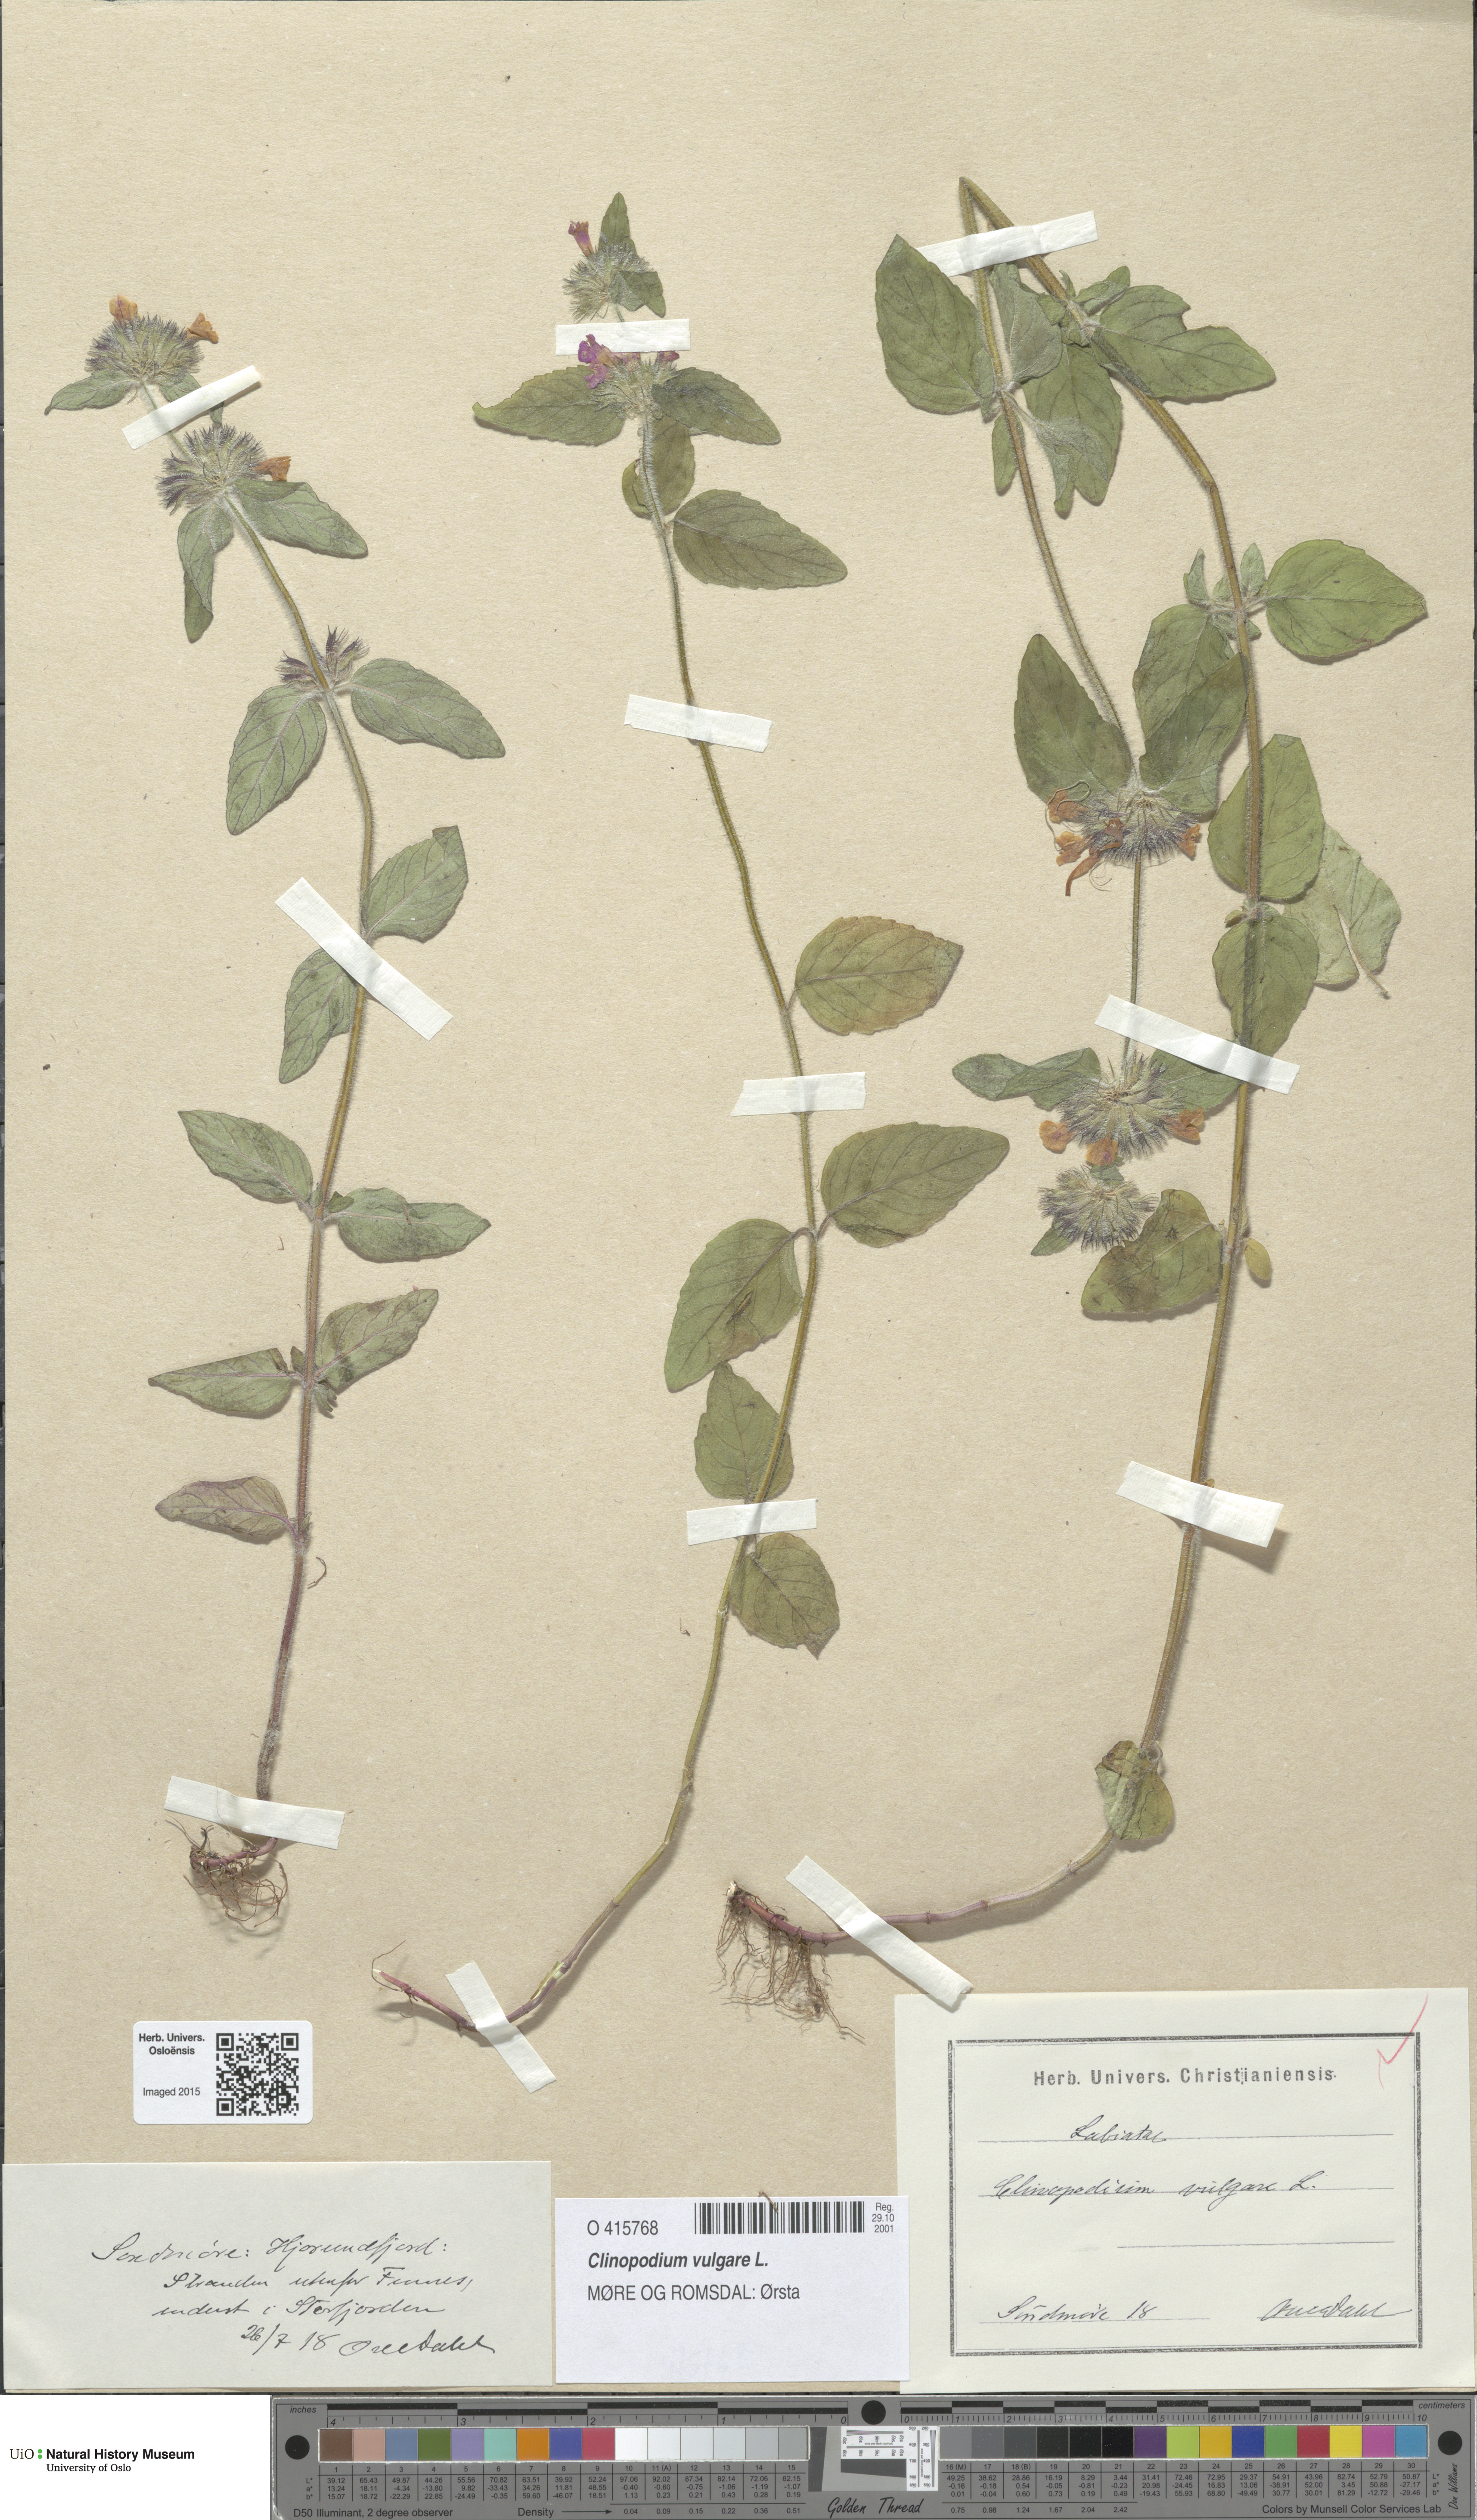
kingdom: Plantae
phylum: Tracheophyta
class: Magnoliopsida
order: Lamiales
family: Lamiaceae
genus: Clinopodium
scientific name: Clinopodium vulgare
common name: Wild basil
